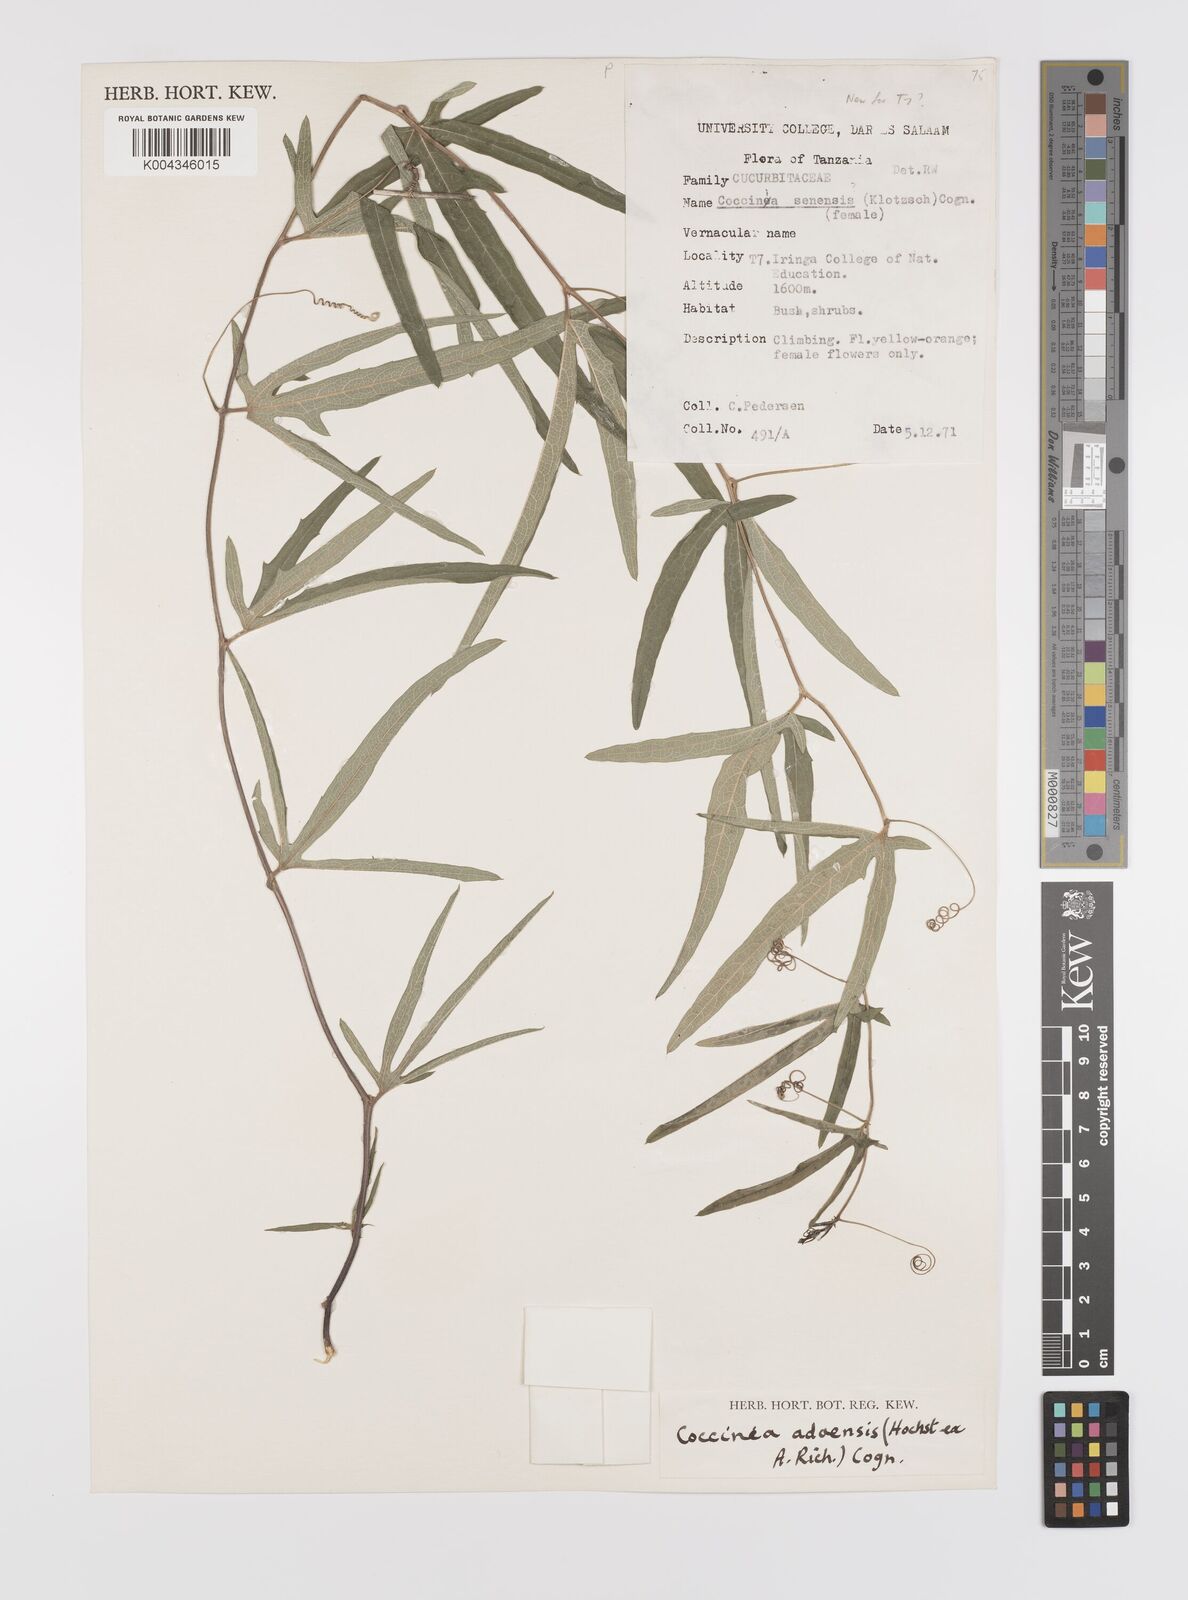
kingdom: Plantae
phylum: Tracheophyta
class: Magnoliopsida
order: Cucurbitales
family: Cucurbitaceae
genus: Coccinia
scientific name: Coccinia adoensis
